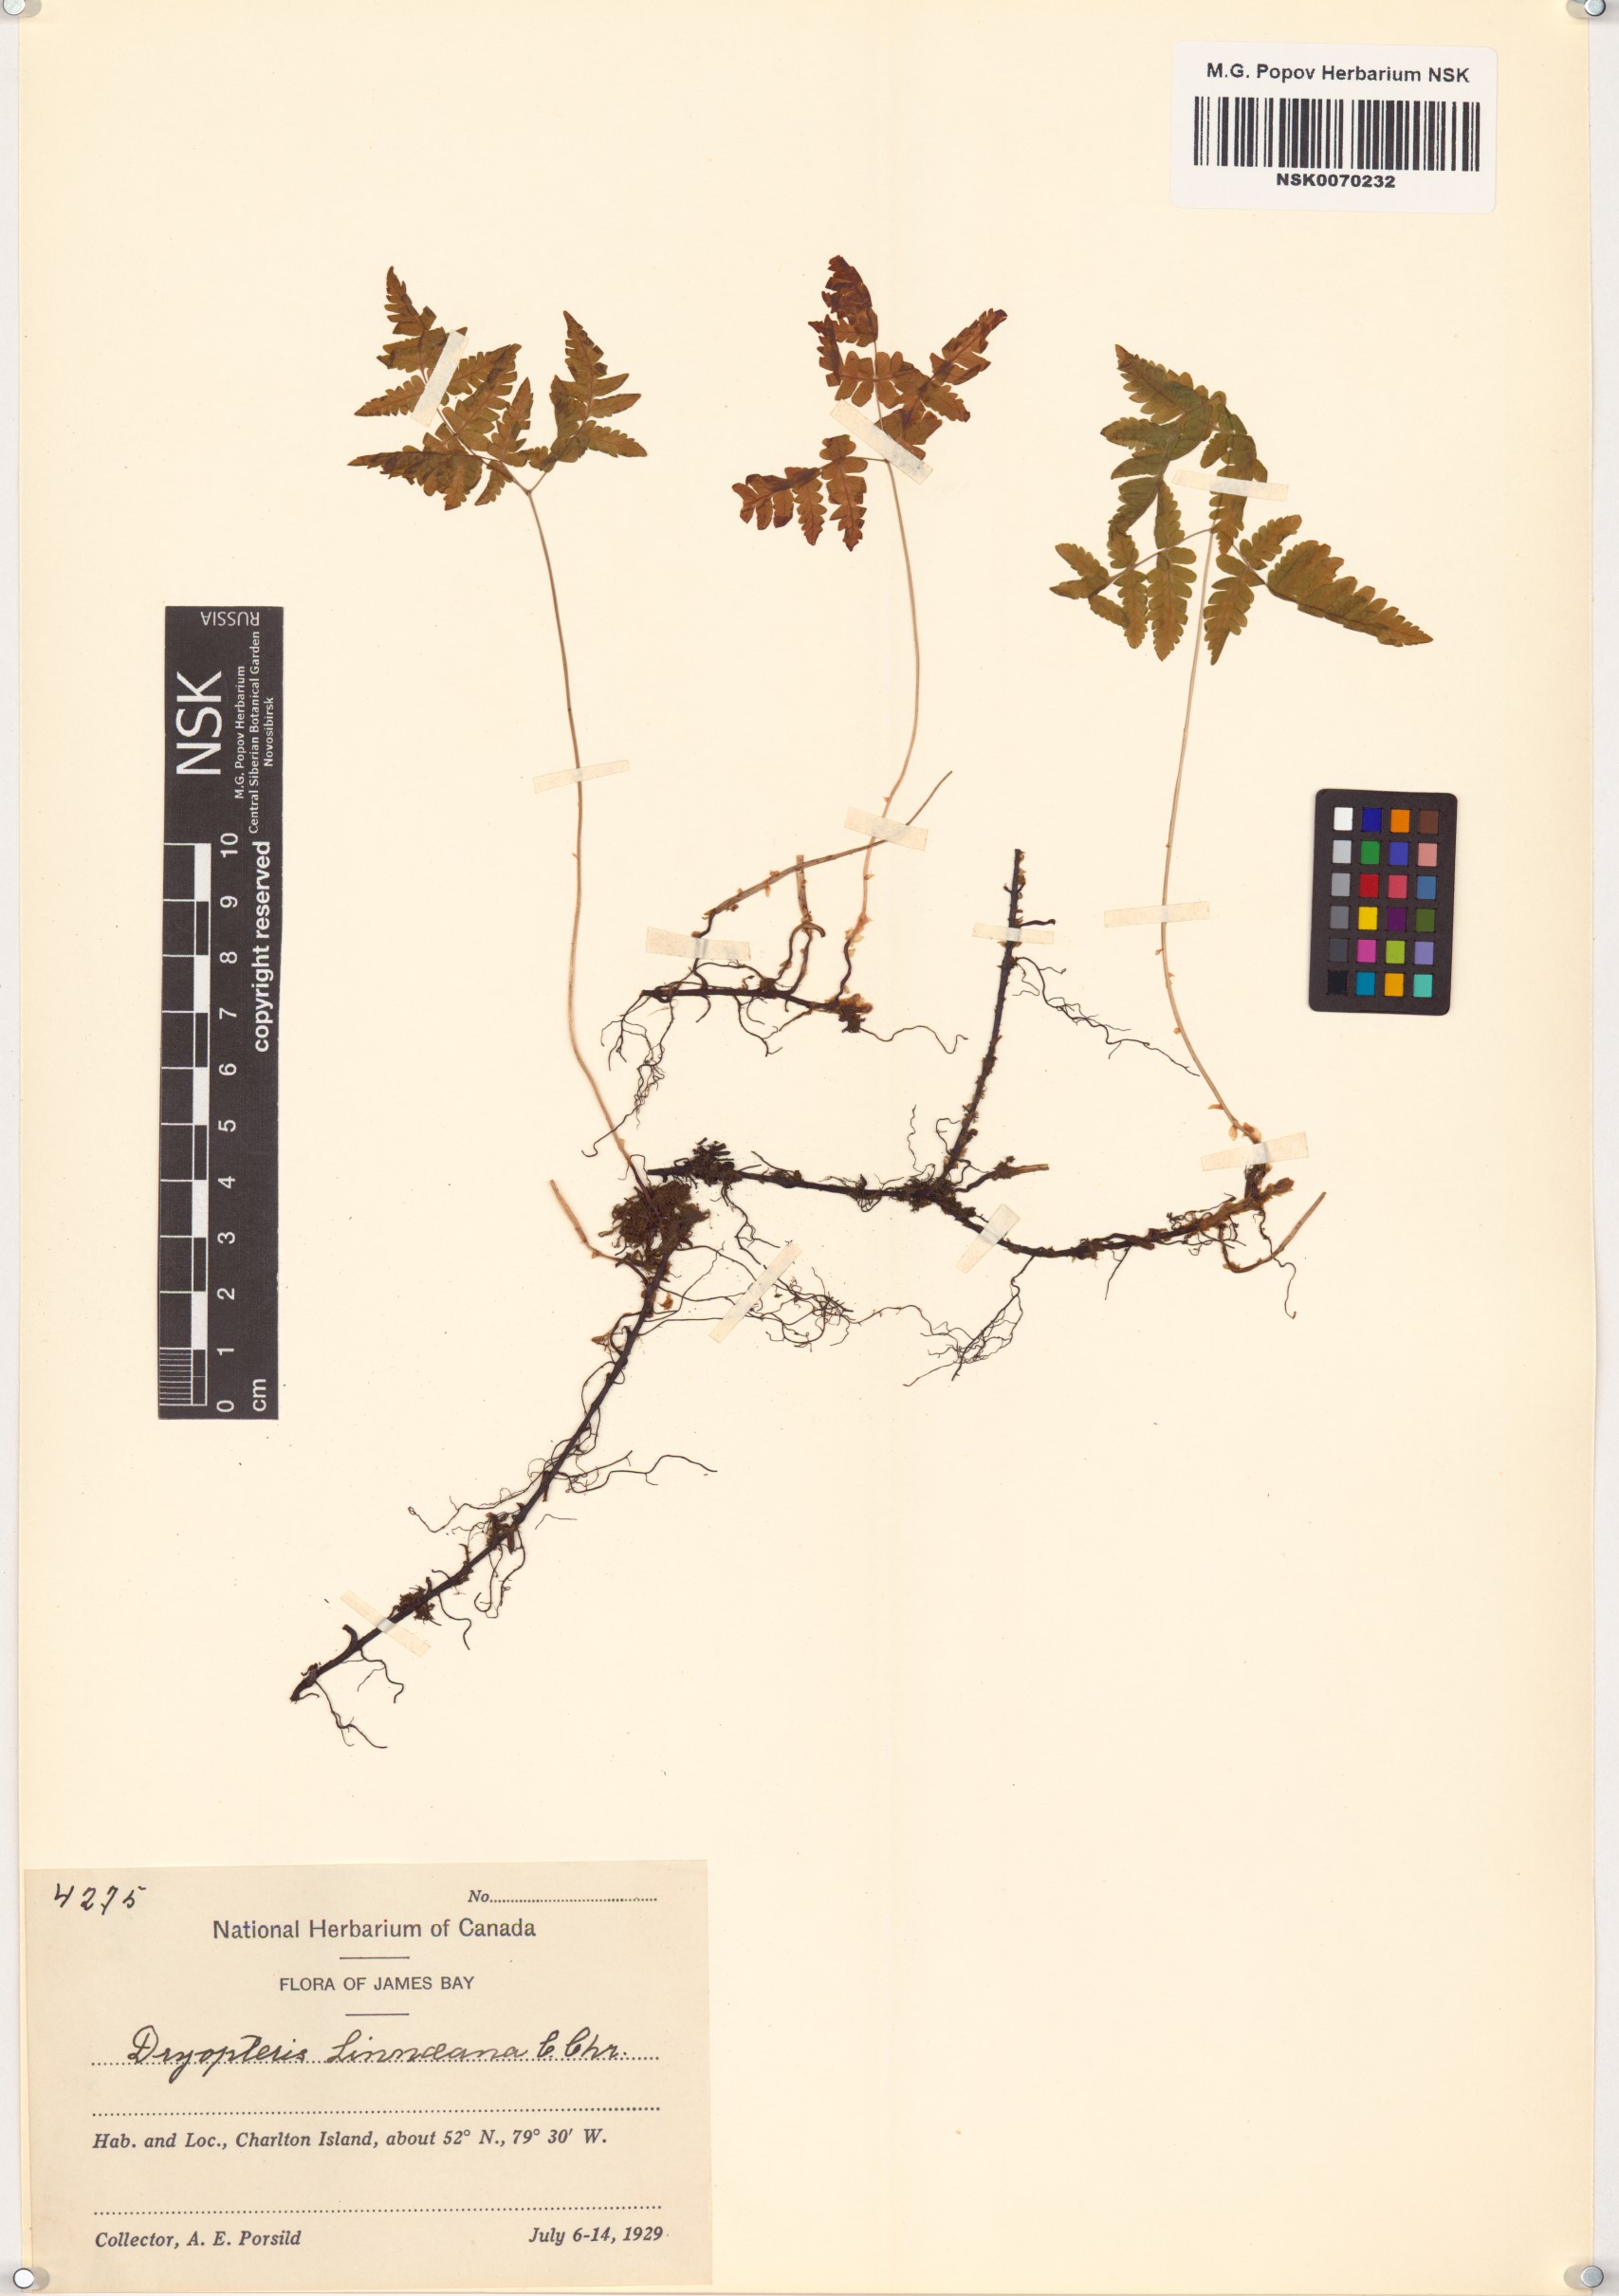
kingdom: Plantae
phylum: Tracheophyta
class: Polypodiopsida
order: Polypodiales
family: Cystopteridaceae
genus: Gymnocarpium
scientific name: Gymnocarpium dryopteris
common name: Oak fern
